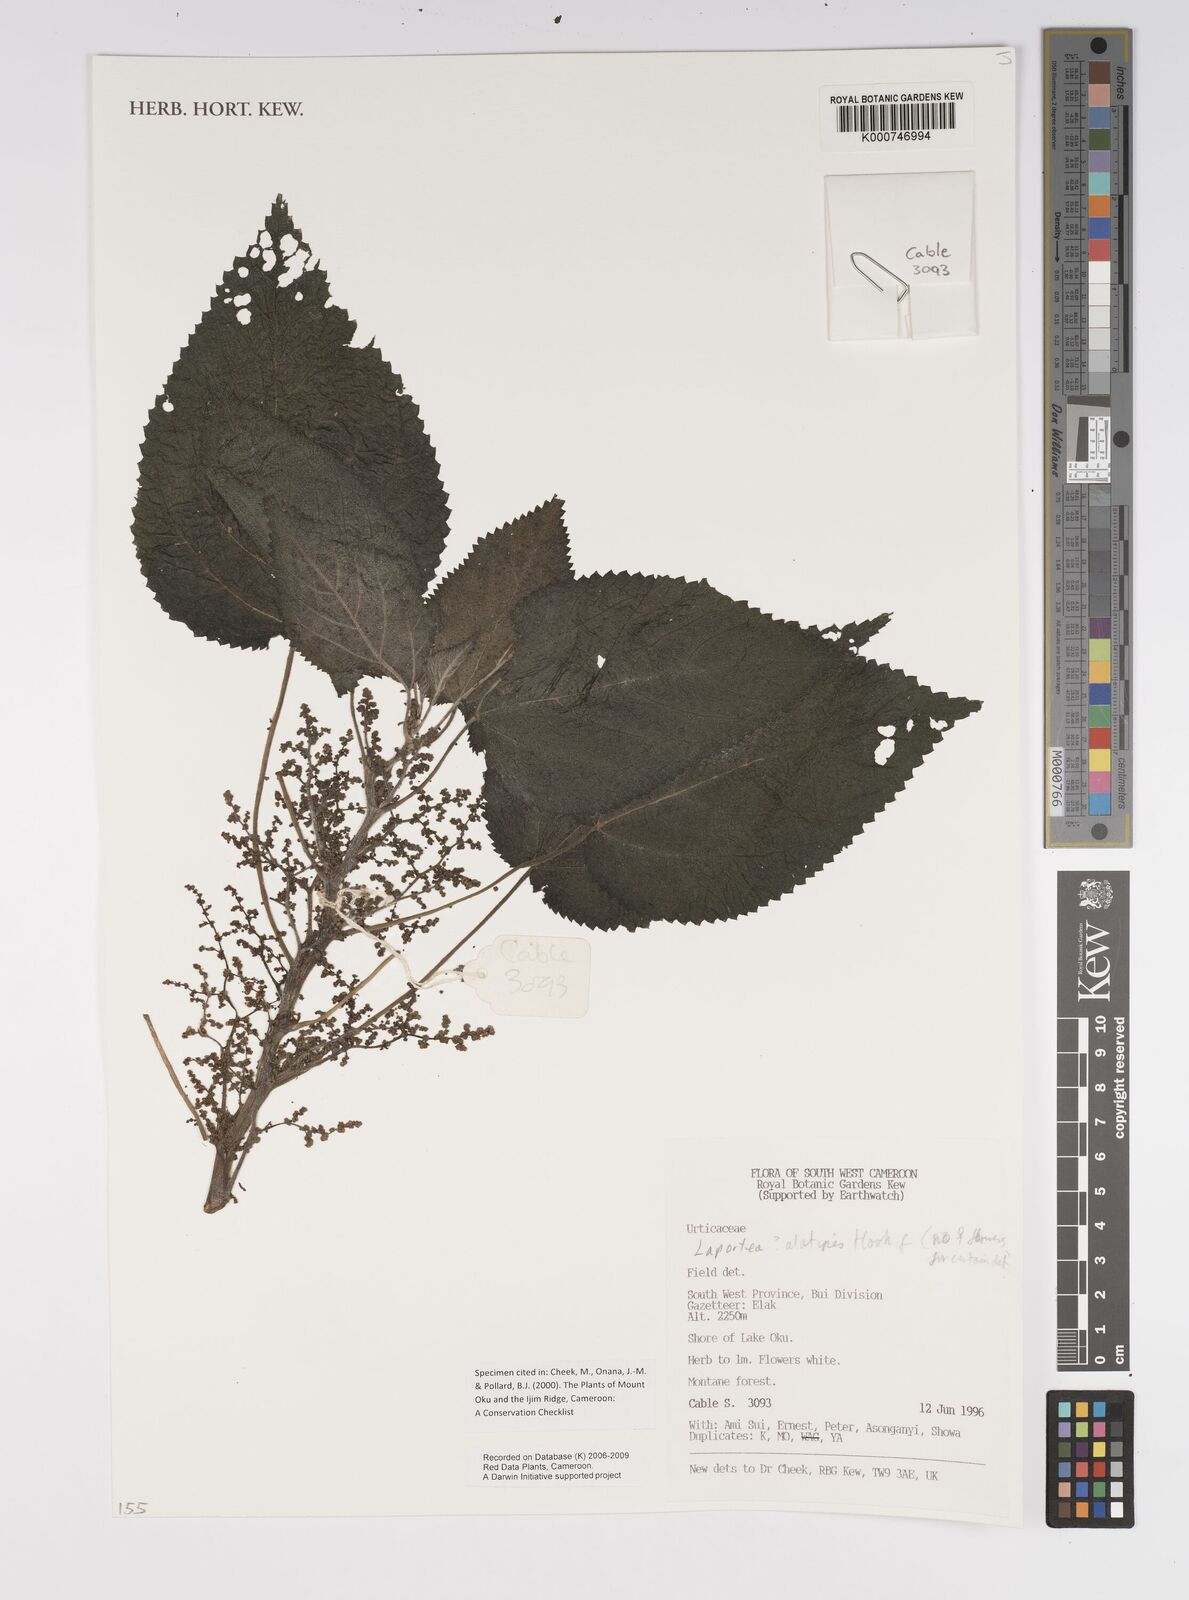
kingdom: Plantae
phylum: Tracheophyta
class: Magnoliopsida
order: Rosales
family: Urticaceae
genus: Laportea
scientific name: Laportea alatipes
